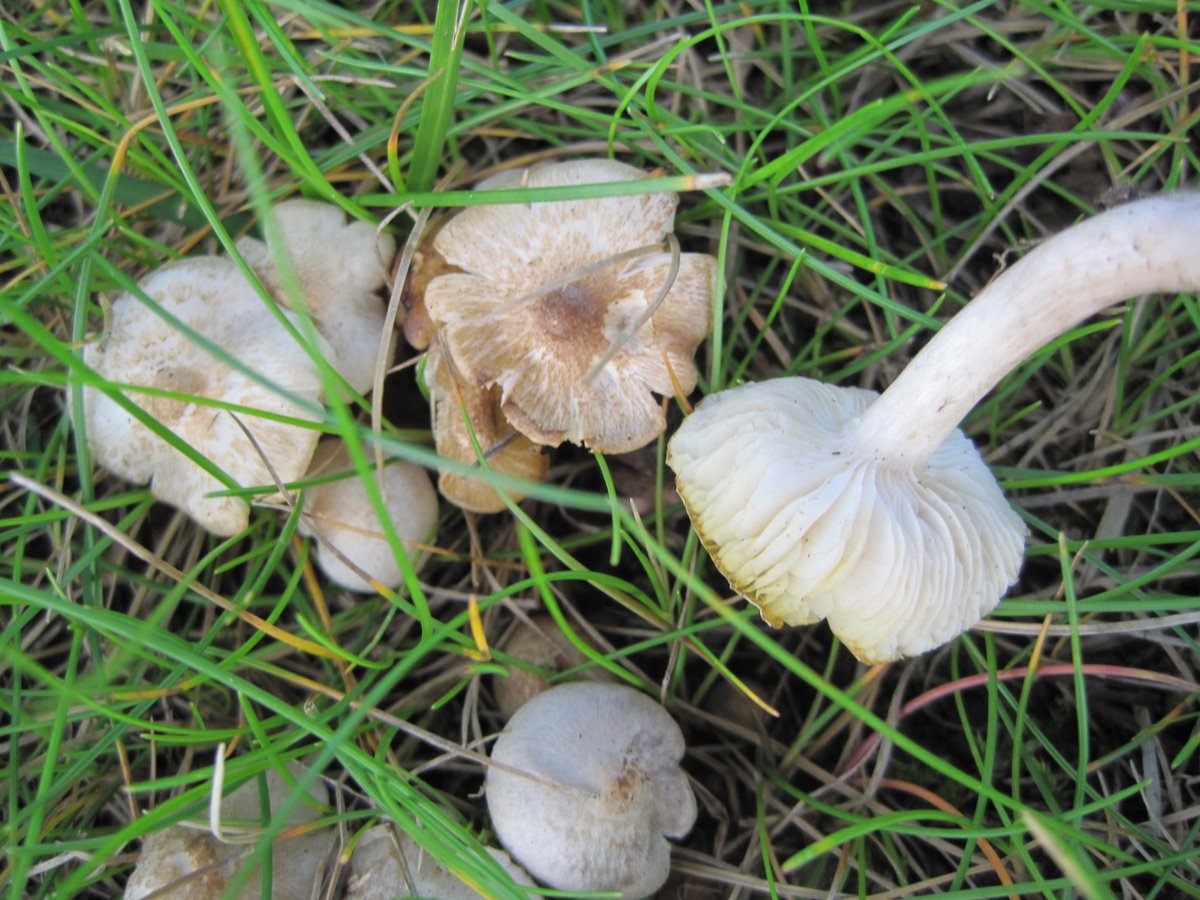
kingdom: Fungi
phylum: Basidiomycota
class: Agaricomycetes
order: Agaricales
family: Tricholomataceae
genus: Tricholoma
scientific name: Tricholoma argyraceum
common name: spids ridderhat
